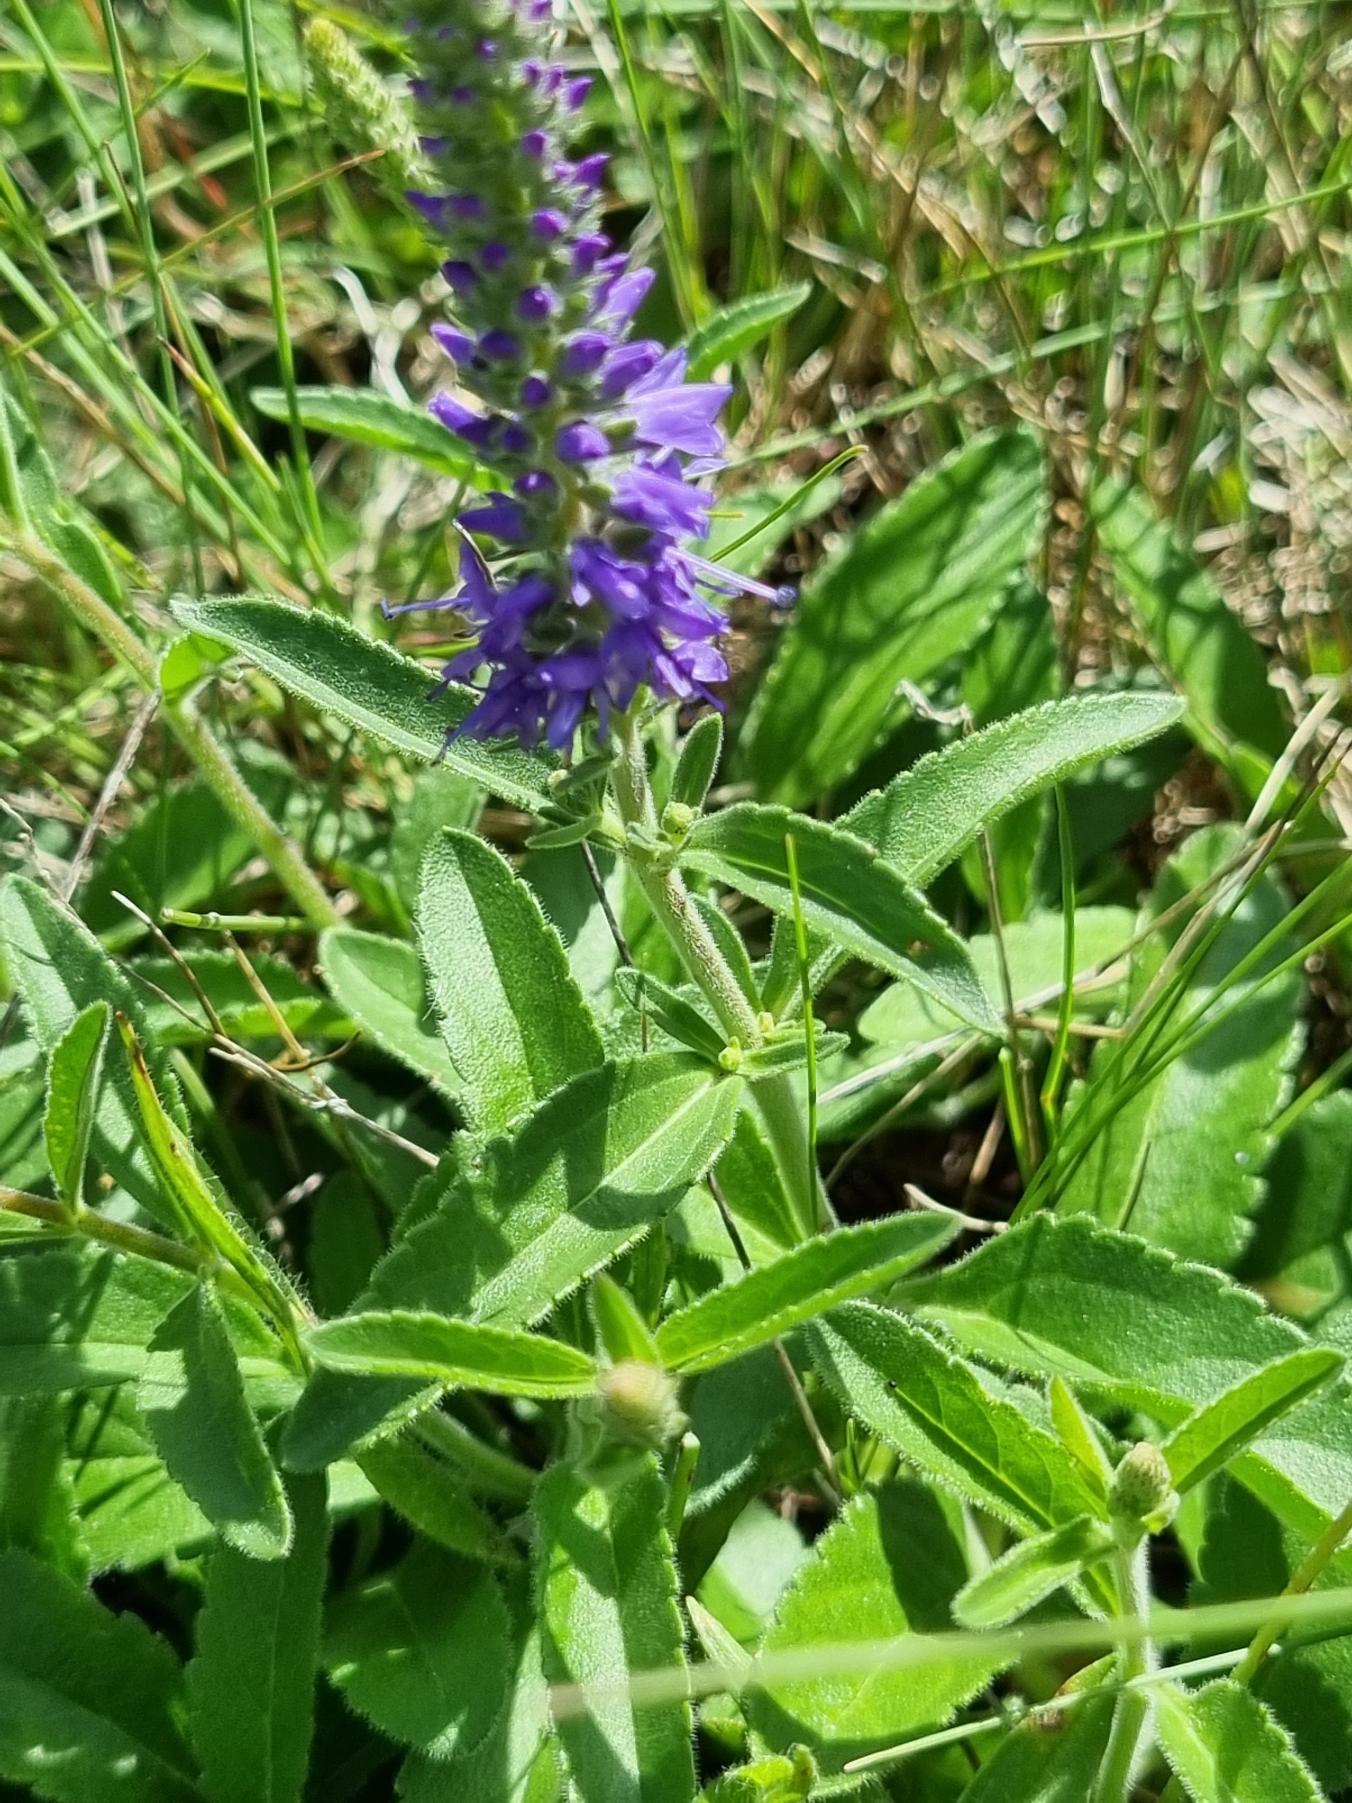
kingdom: Plantae
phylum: Tracheophyta
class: Magnoliopsida
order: Lamiales
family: Plantaginaceae
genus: Veronica
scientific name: Veronica spicata
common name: Aks-ærenpris
